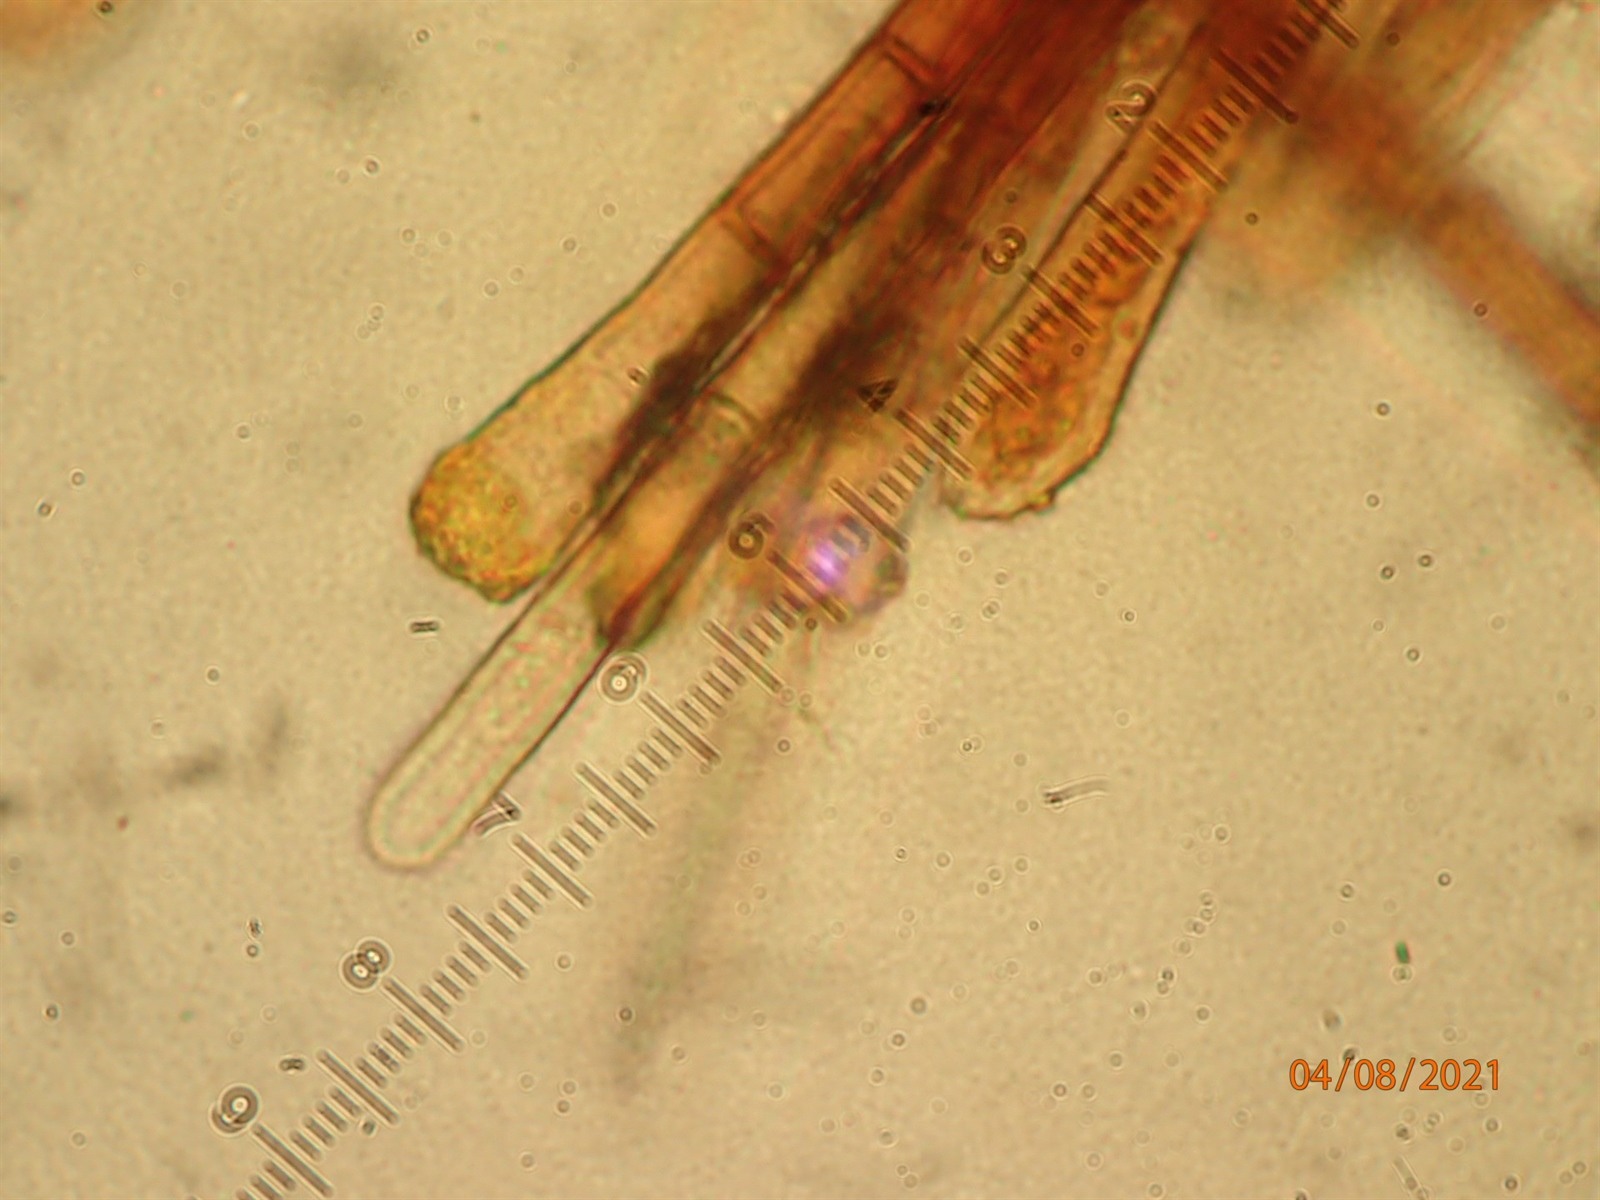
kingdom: Fungi
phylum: Ascomycota
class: Leotiomycetes
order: Helotiales
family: Solenopeziaceae
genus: Trichopezizella
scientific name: Trichopezizella rubroguttata
